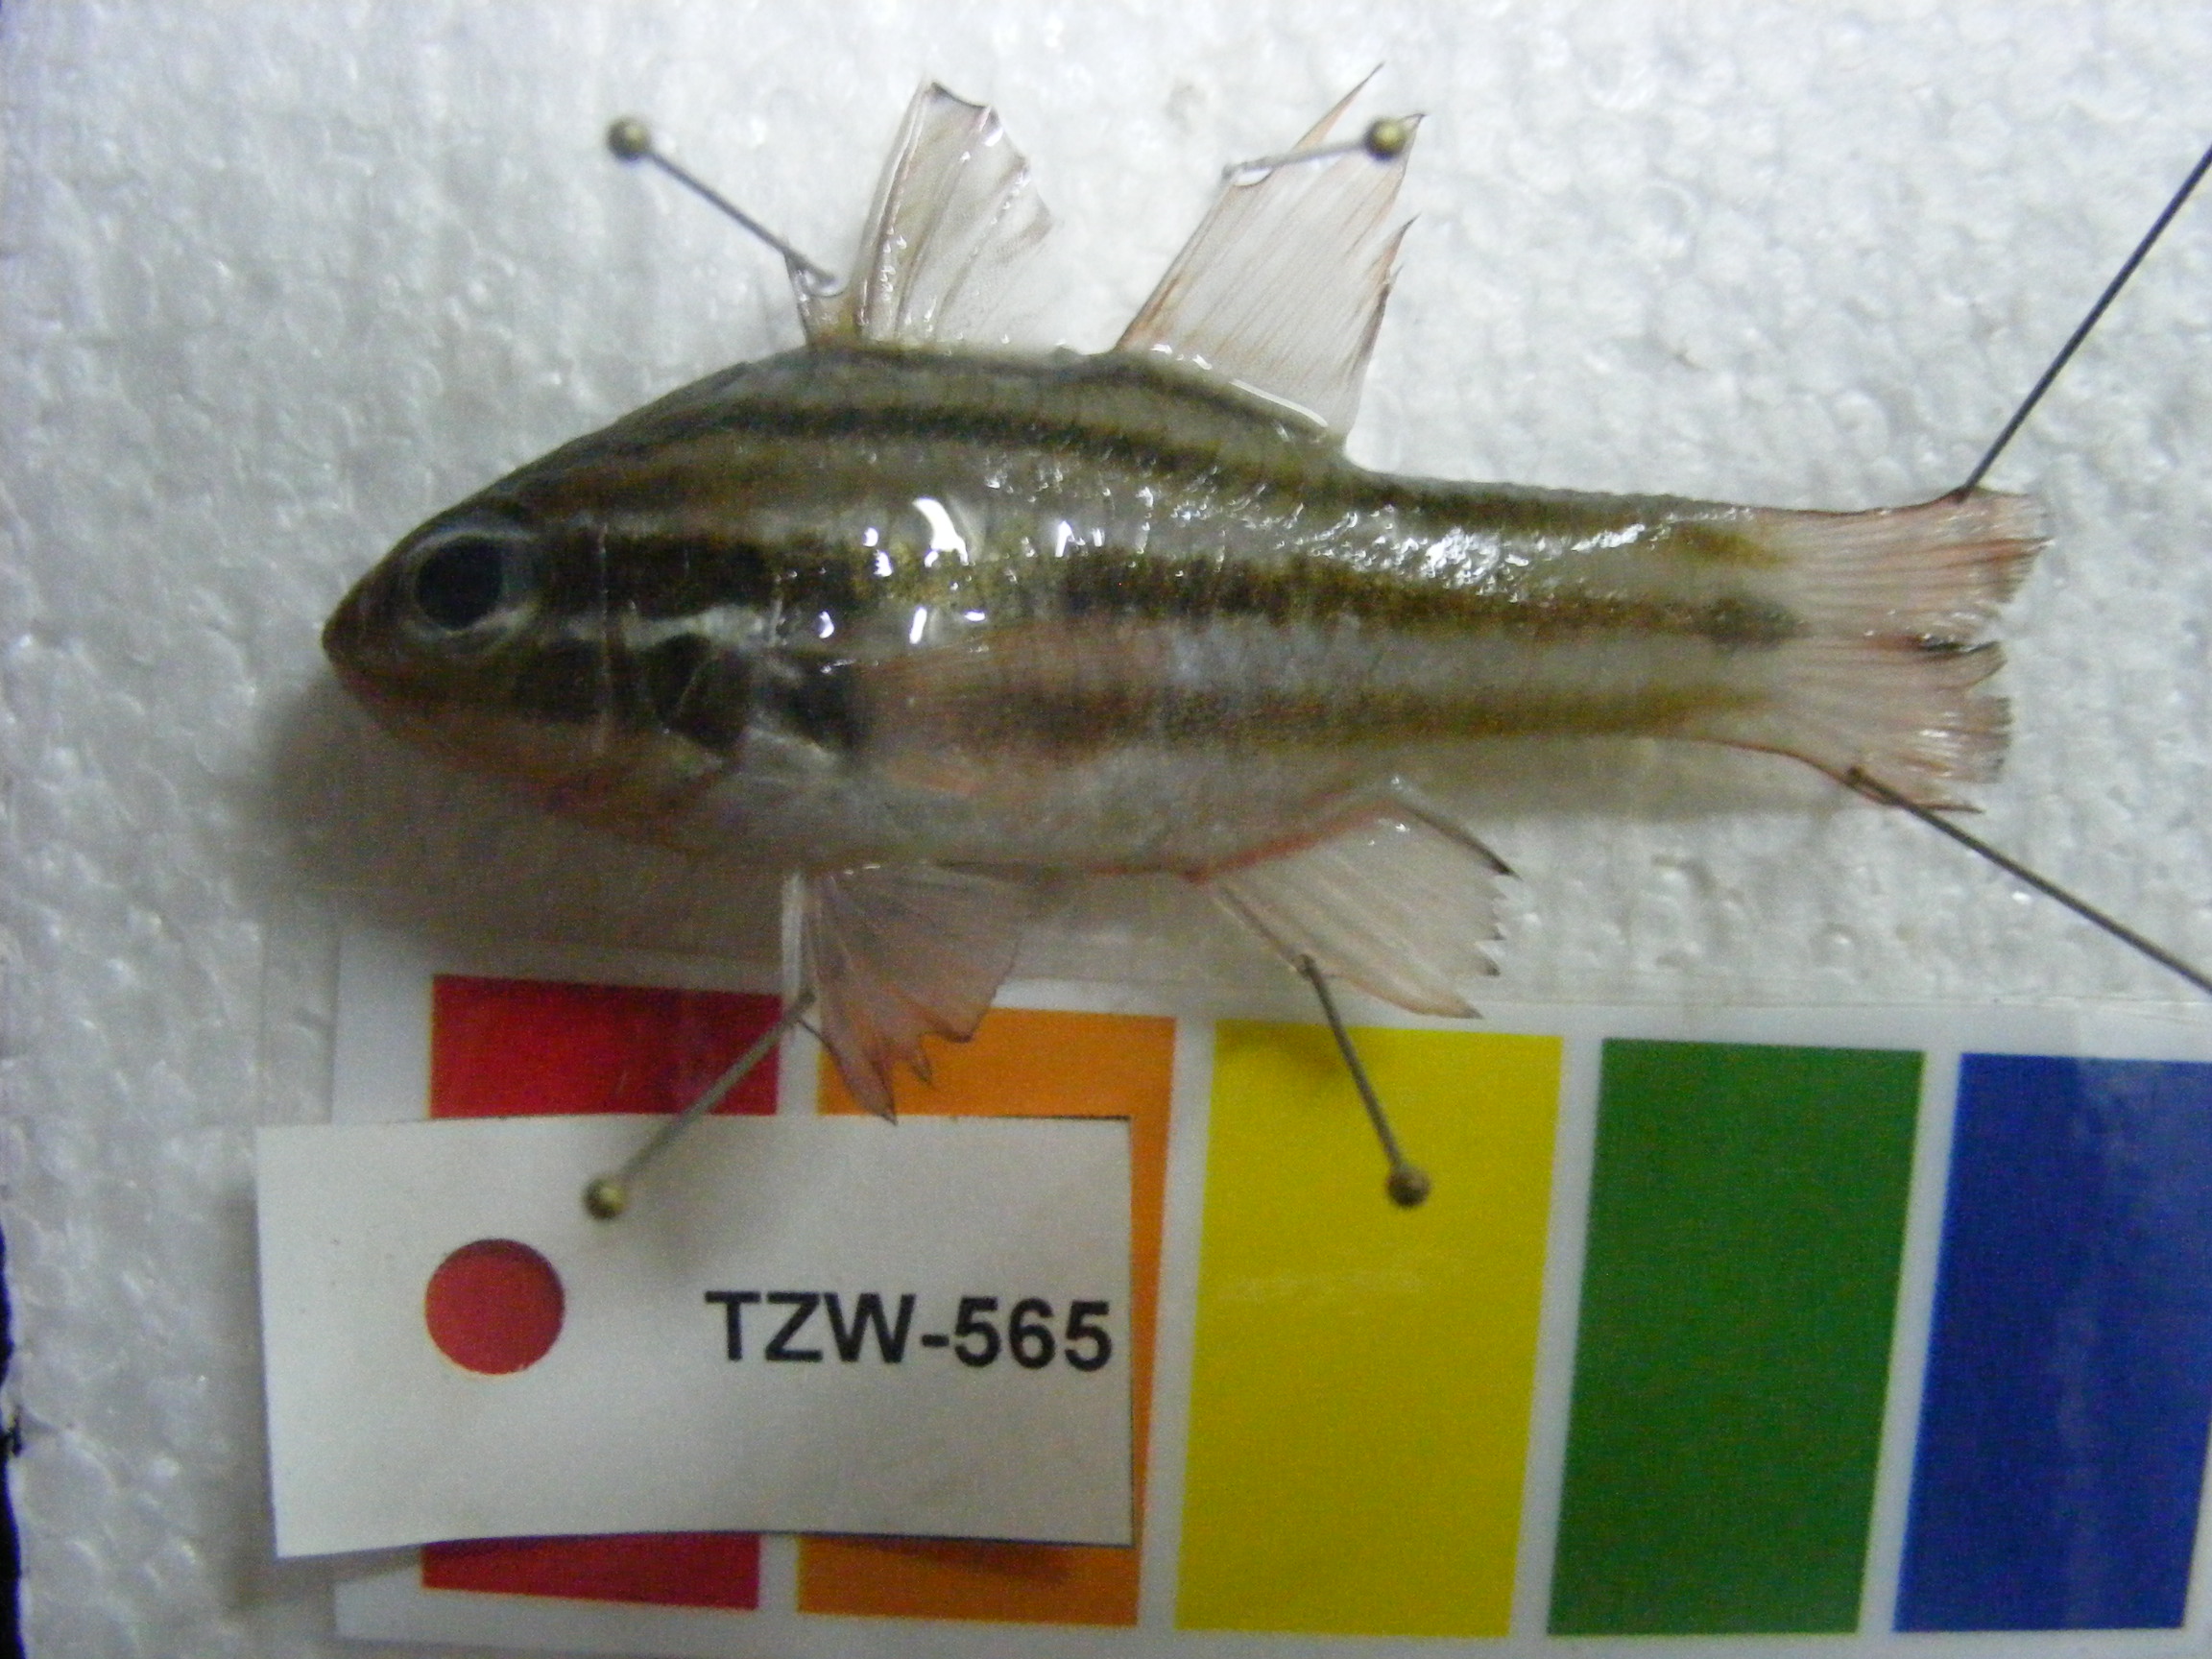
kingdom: Animalia
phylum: Chordata
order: Perciformes
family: Apogonidae
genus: Ostorhinchus
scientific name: Ostorhinchus cookii
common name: Cook's cardinalfish
